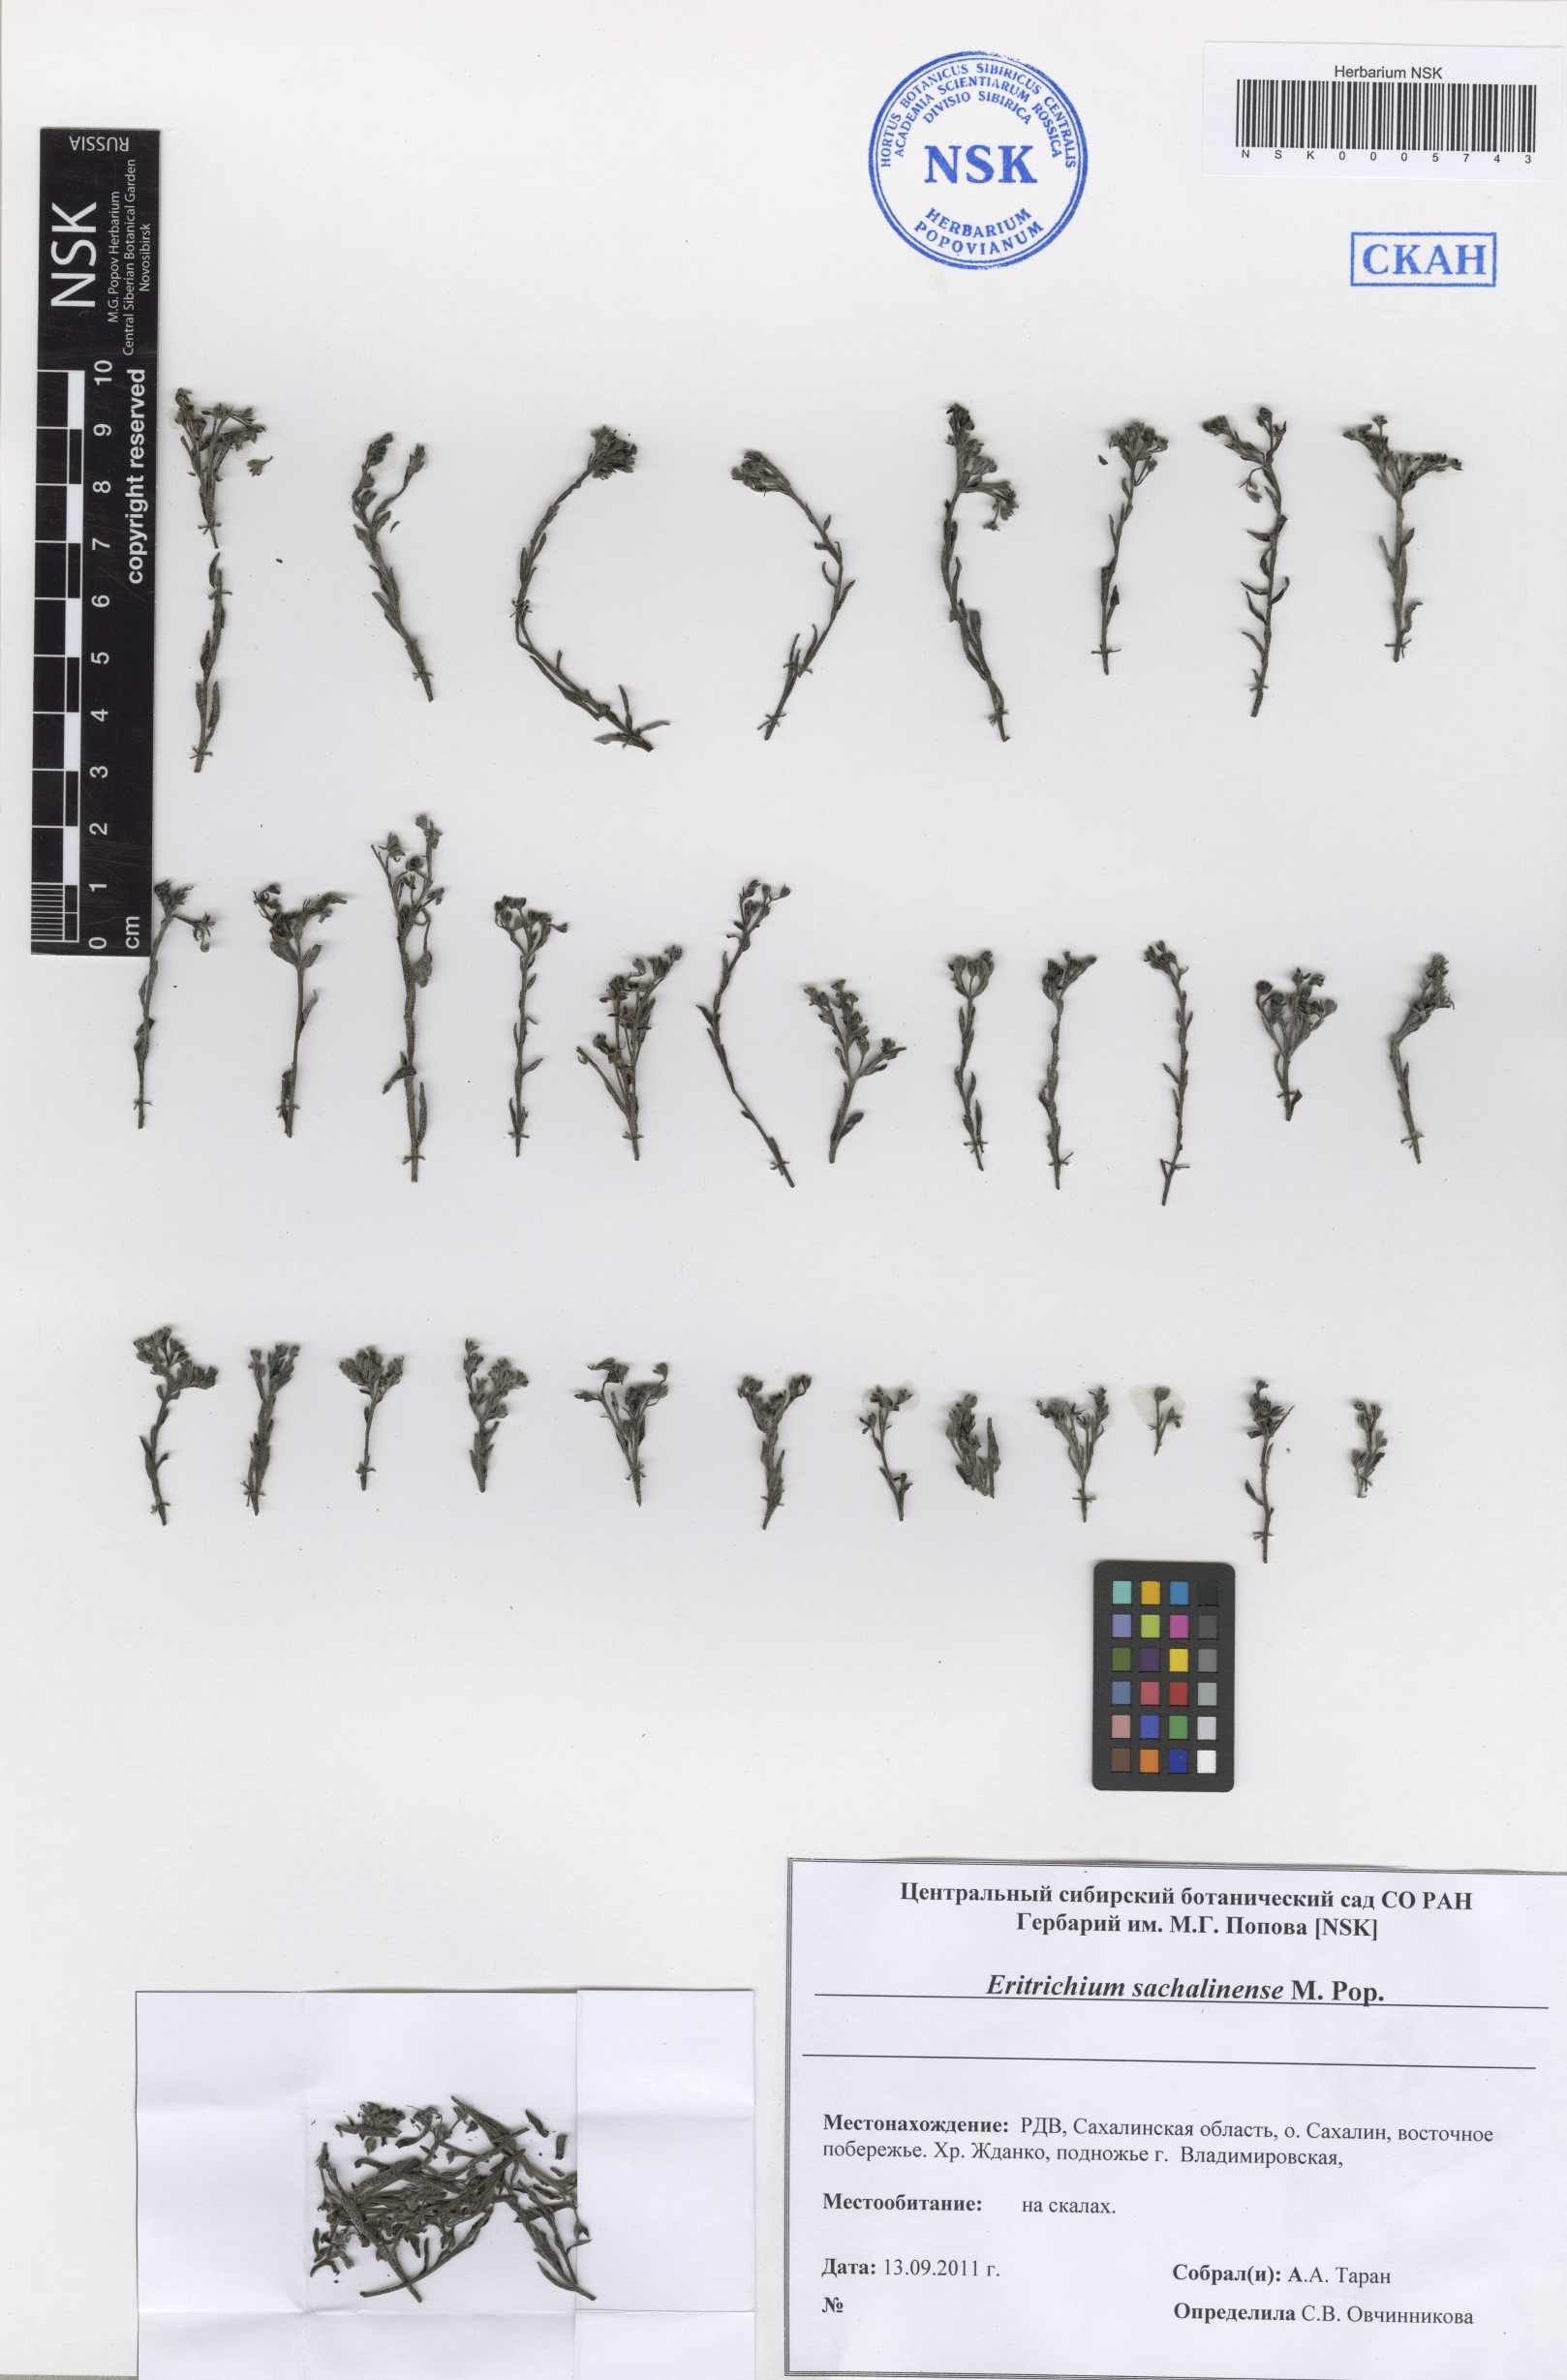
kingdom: Plantae
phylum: Tracheophyta
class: Magnoliopsida
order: Boraginales
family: Boraginaceae
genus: Eritrichium
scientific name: Eritrichium nipponicum
